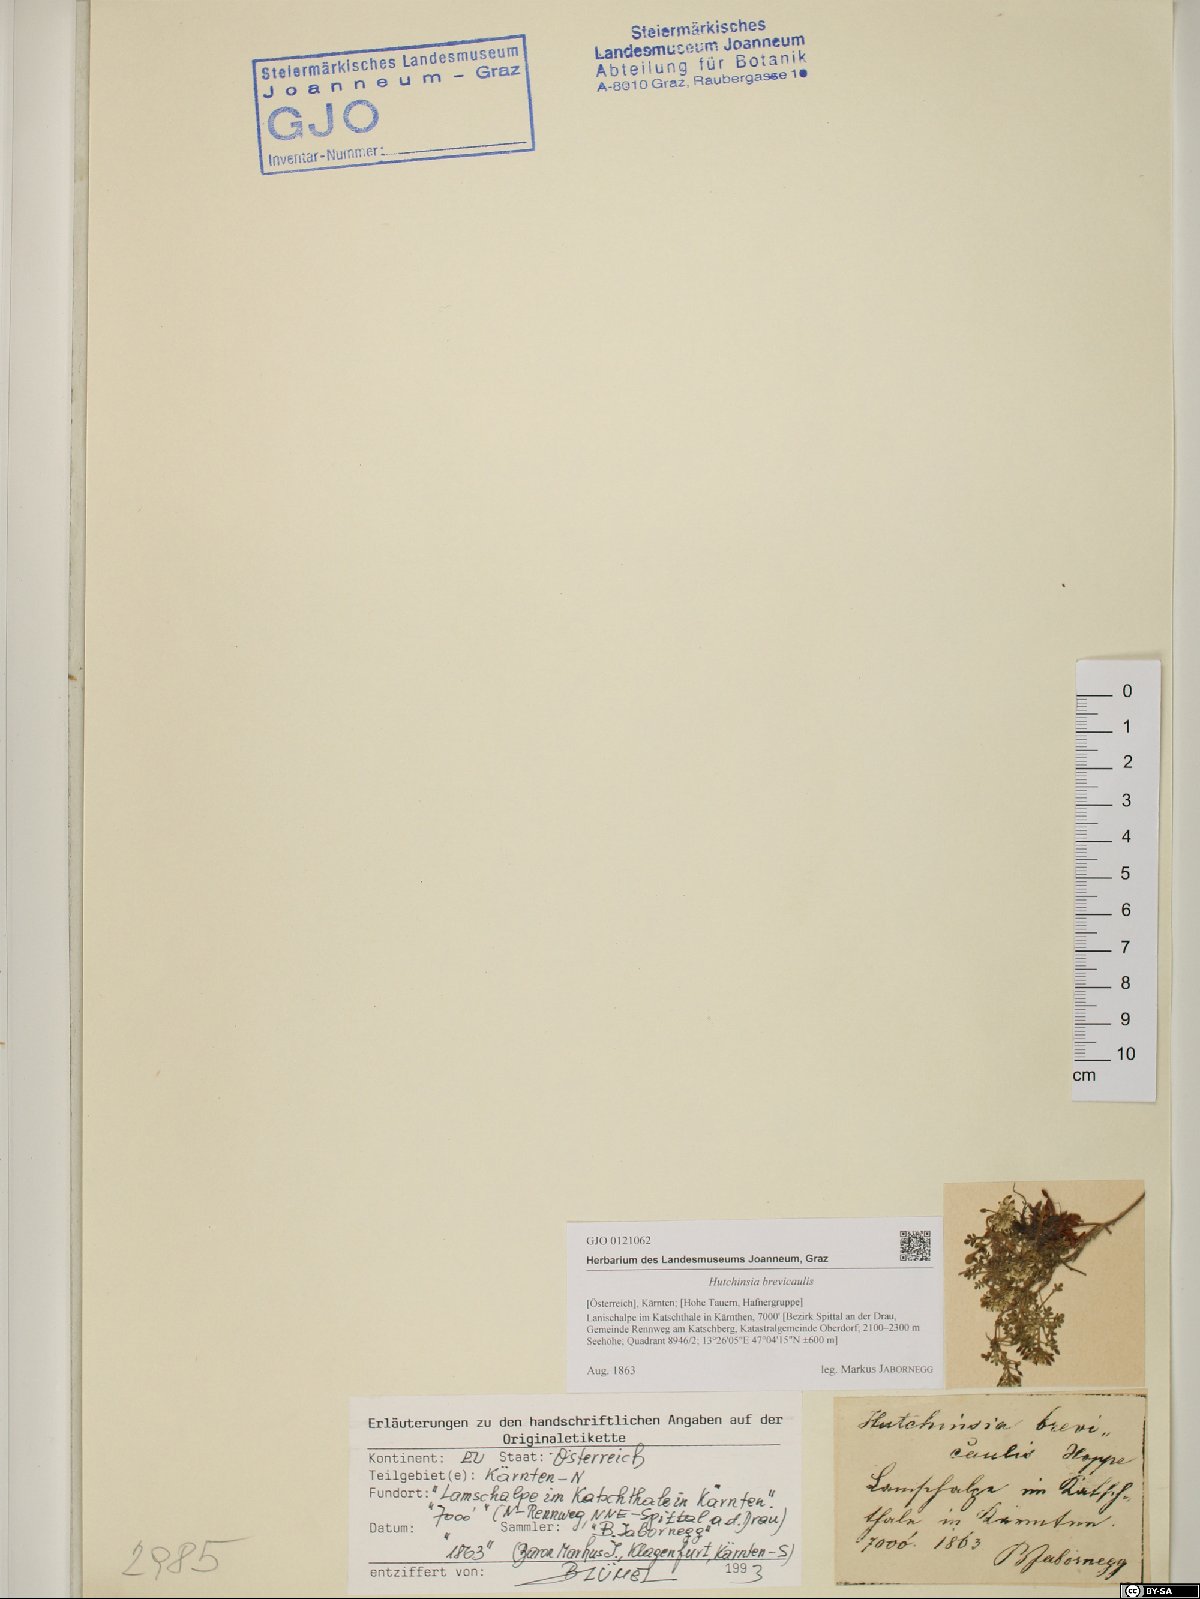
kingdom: Plantae
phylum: Tracheophyta
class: Magnoliopsida
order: Brassicales
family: Brassicaceae
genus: Hornungia
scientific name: Hornungia alpina
